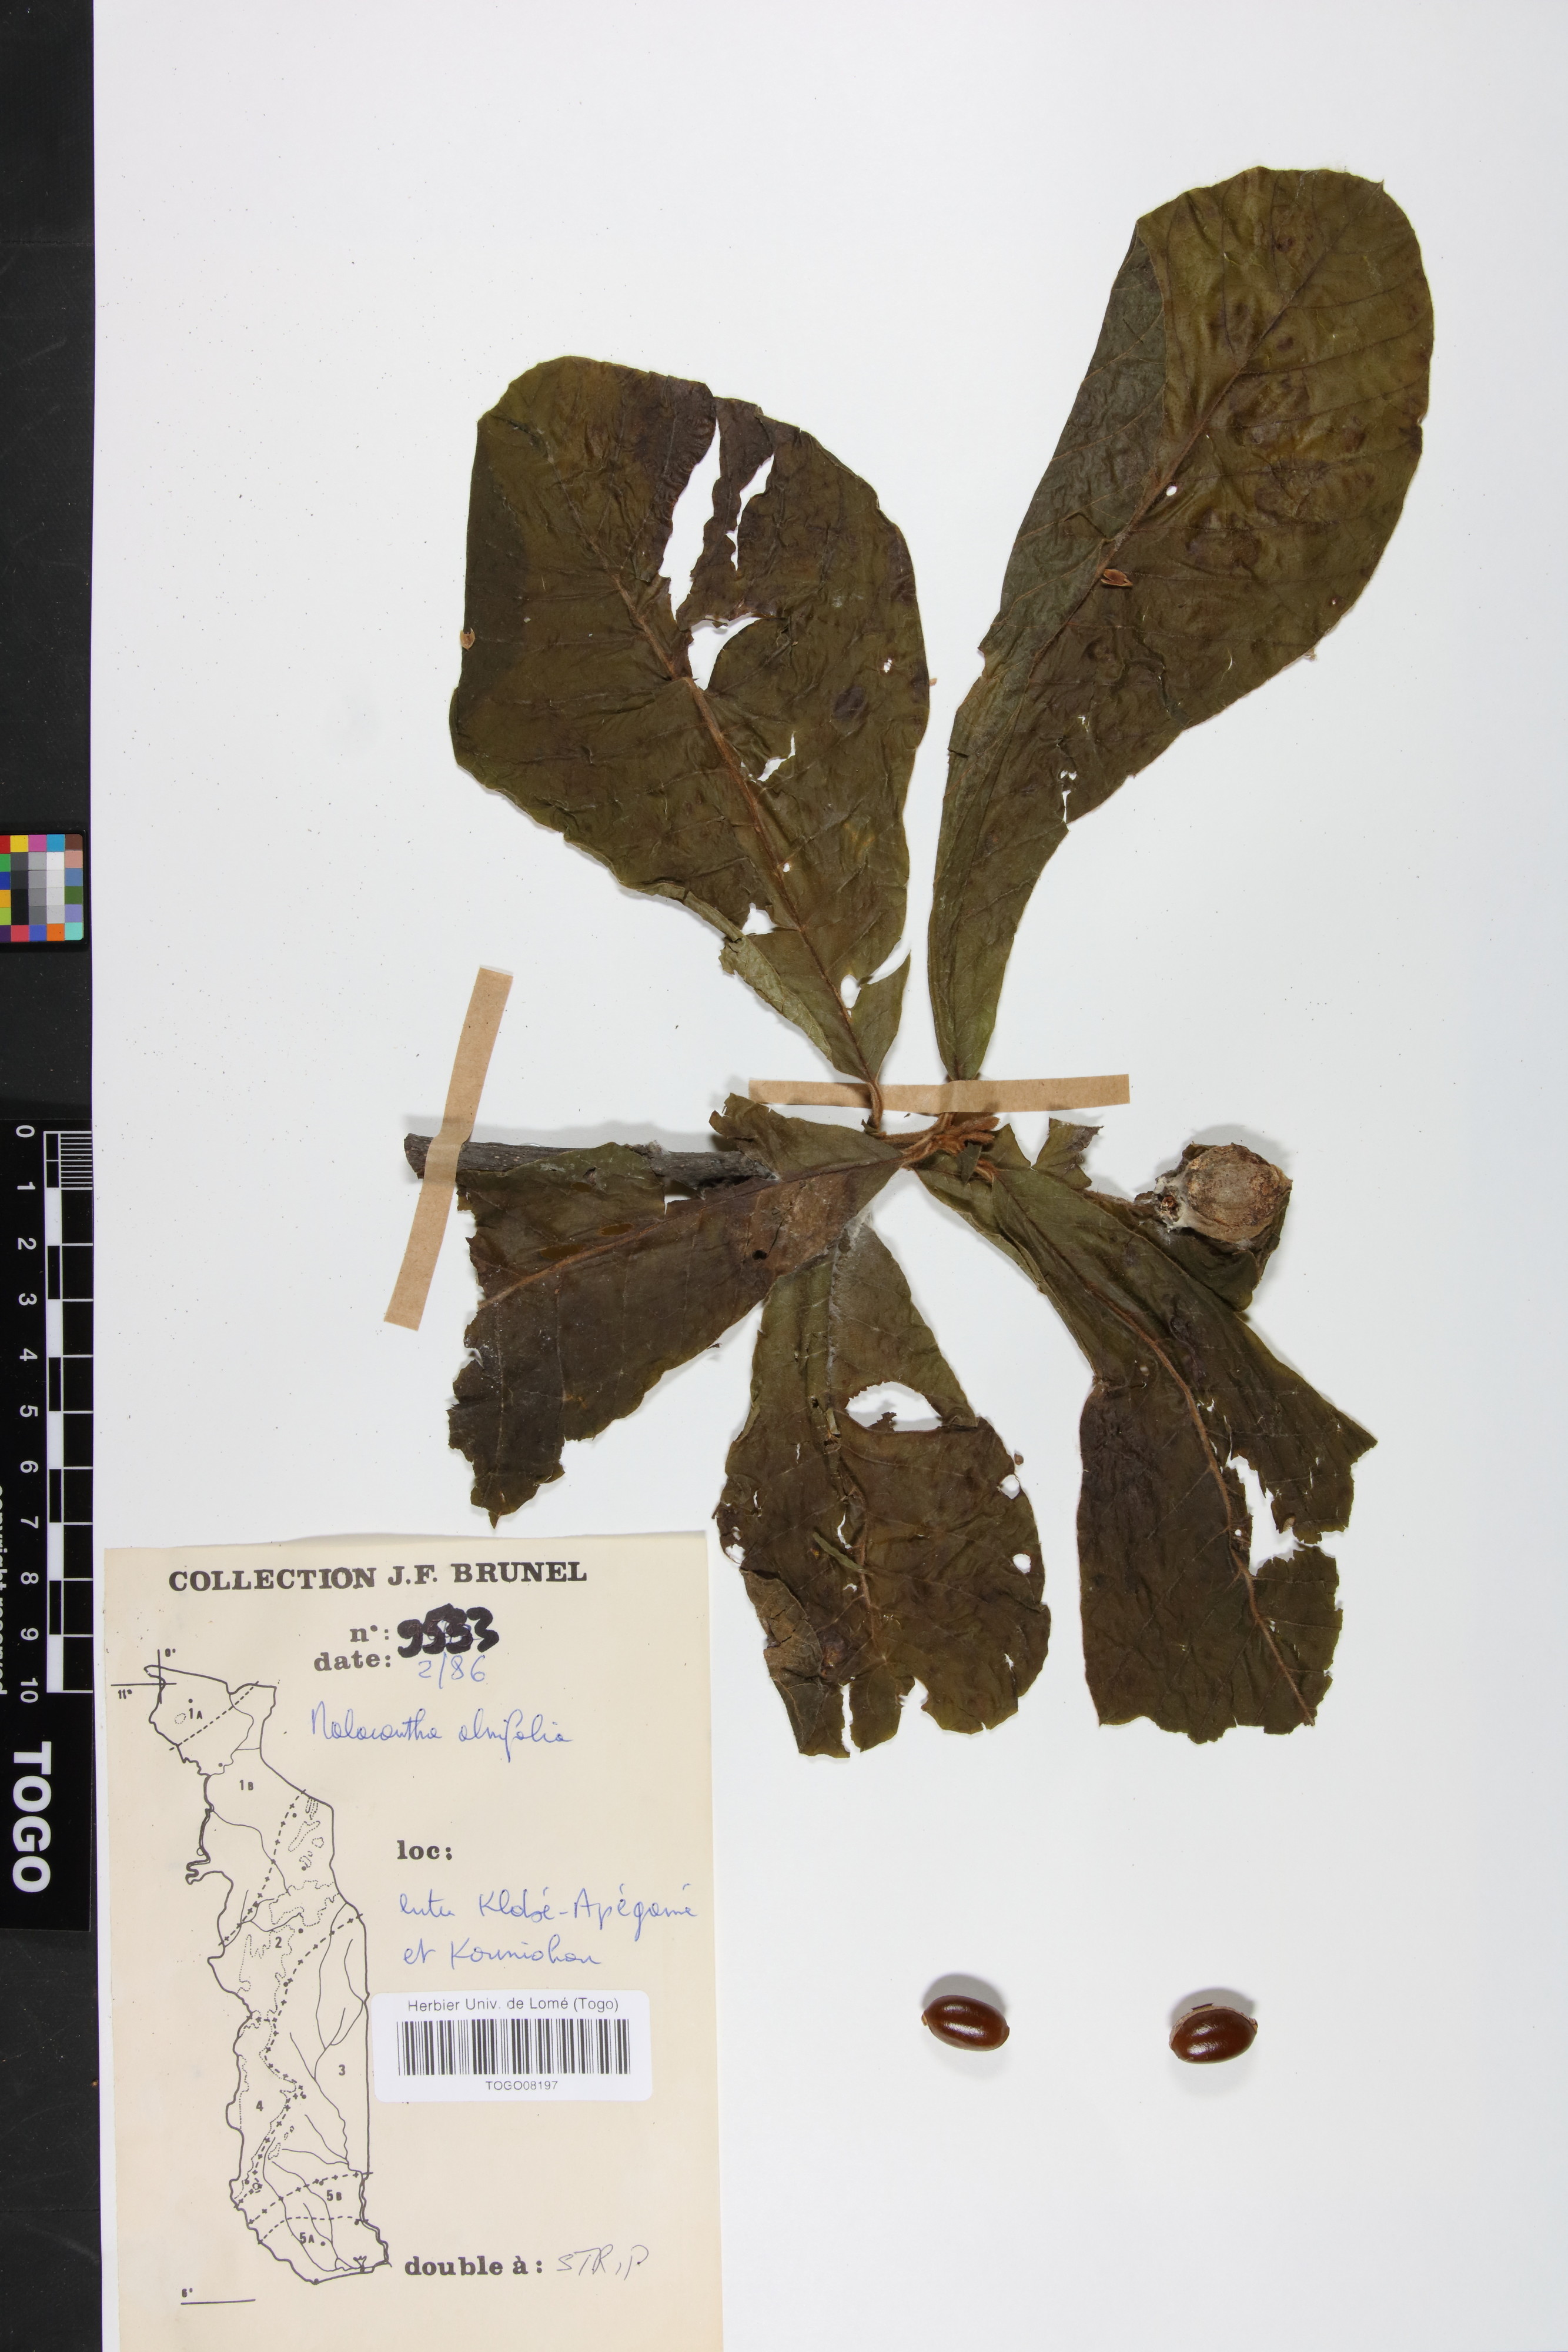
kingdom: Plantae
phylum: Tracheophyta
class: Magnoliopsida
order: Ericales
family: Sapotaceae
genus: Malacantha
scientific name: Malacantha alnifolia
